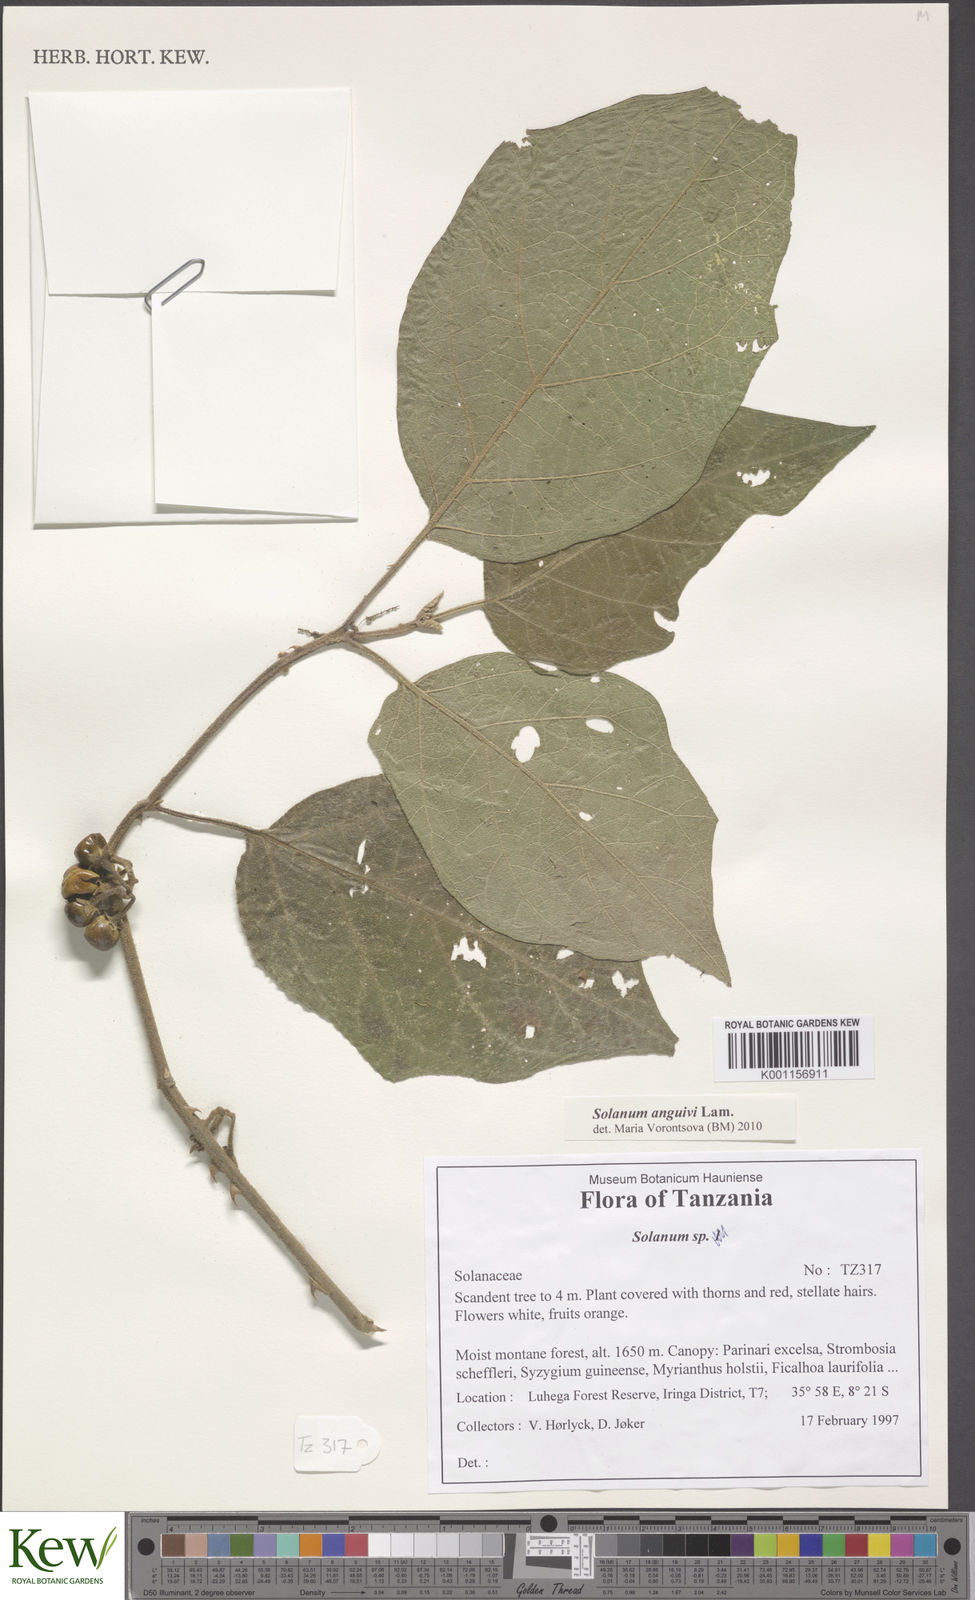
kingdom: Plantae
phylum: Tracheophyta
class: Magnoliopsida
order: Solanales
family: Solanaceae
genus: Solanum
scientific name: Solanum anguivi
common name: Forest bitterberry
